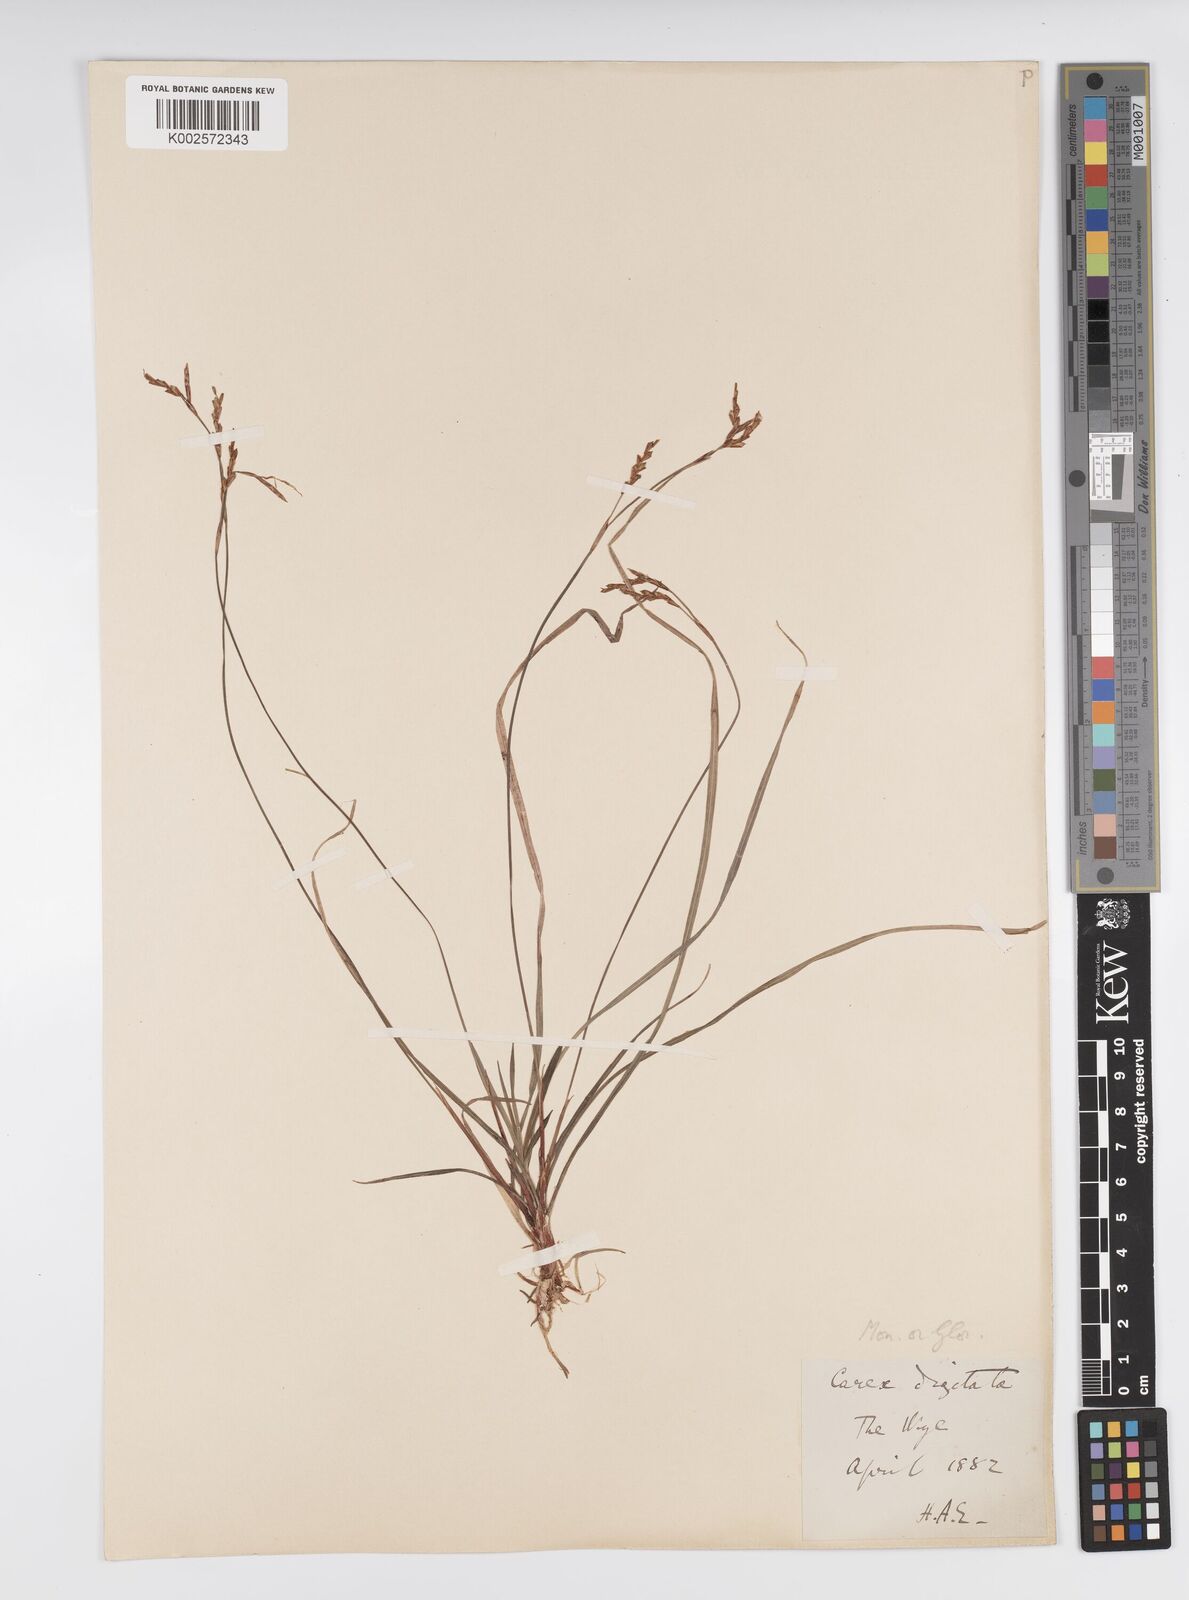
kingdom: Plantae
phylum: Tracheophyta
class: Liliopsida
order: Poales
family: Cyperaceae
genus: Carex
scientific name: Carex digitata
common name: Fingered sedge
